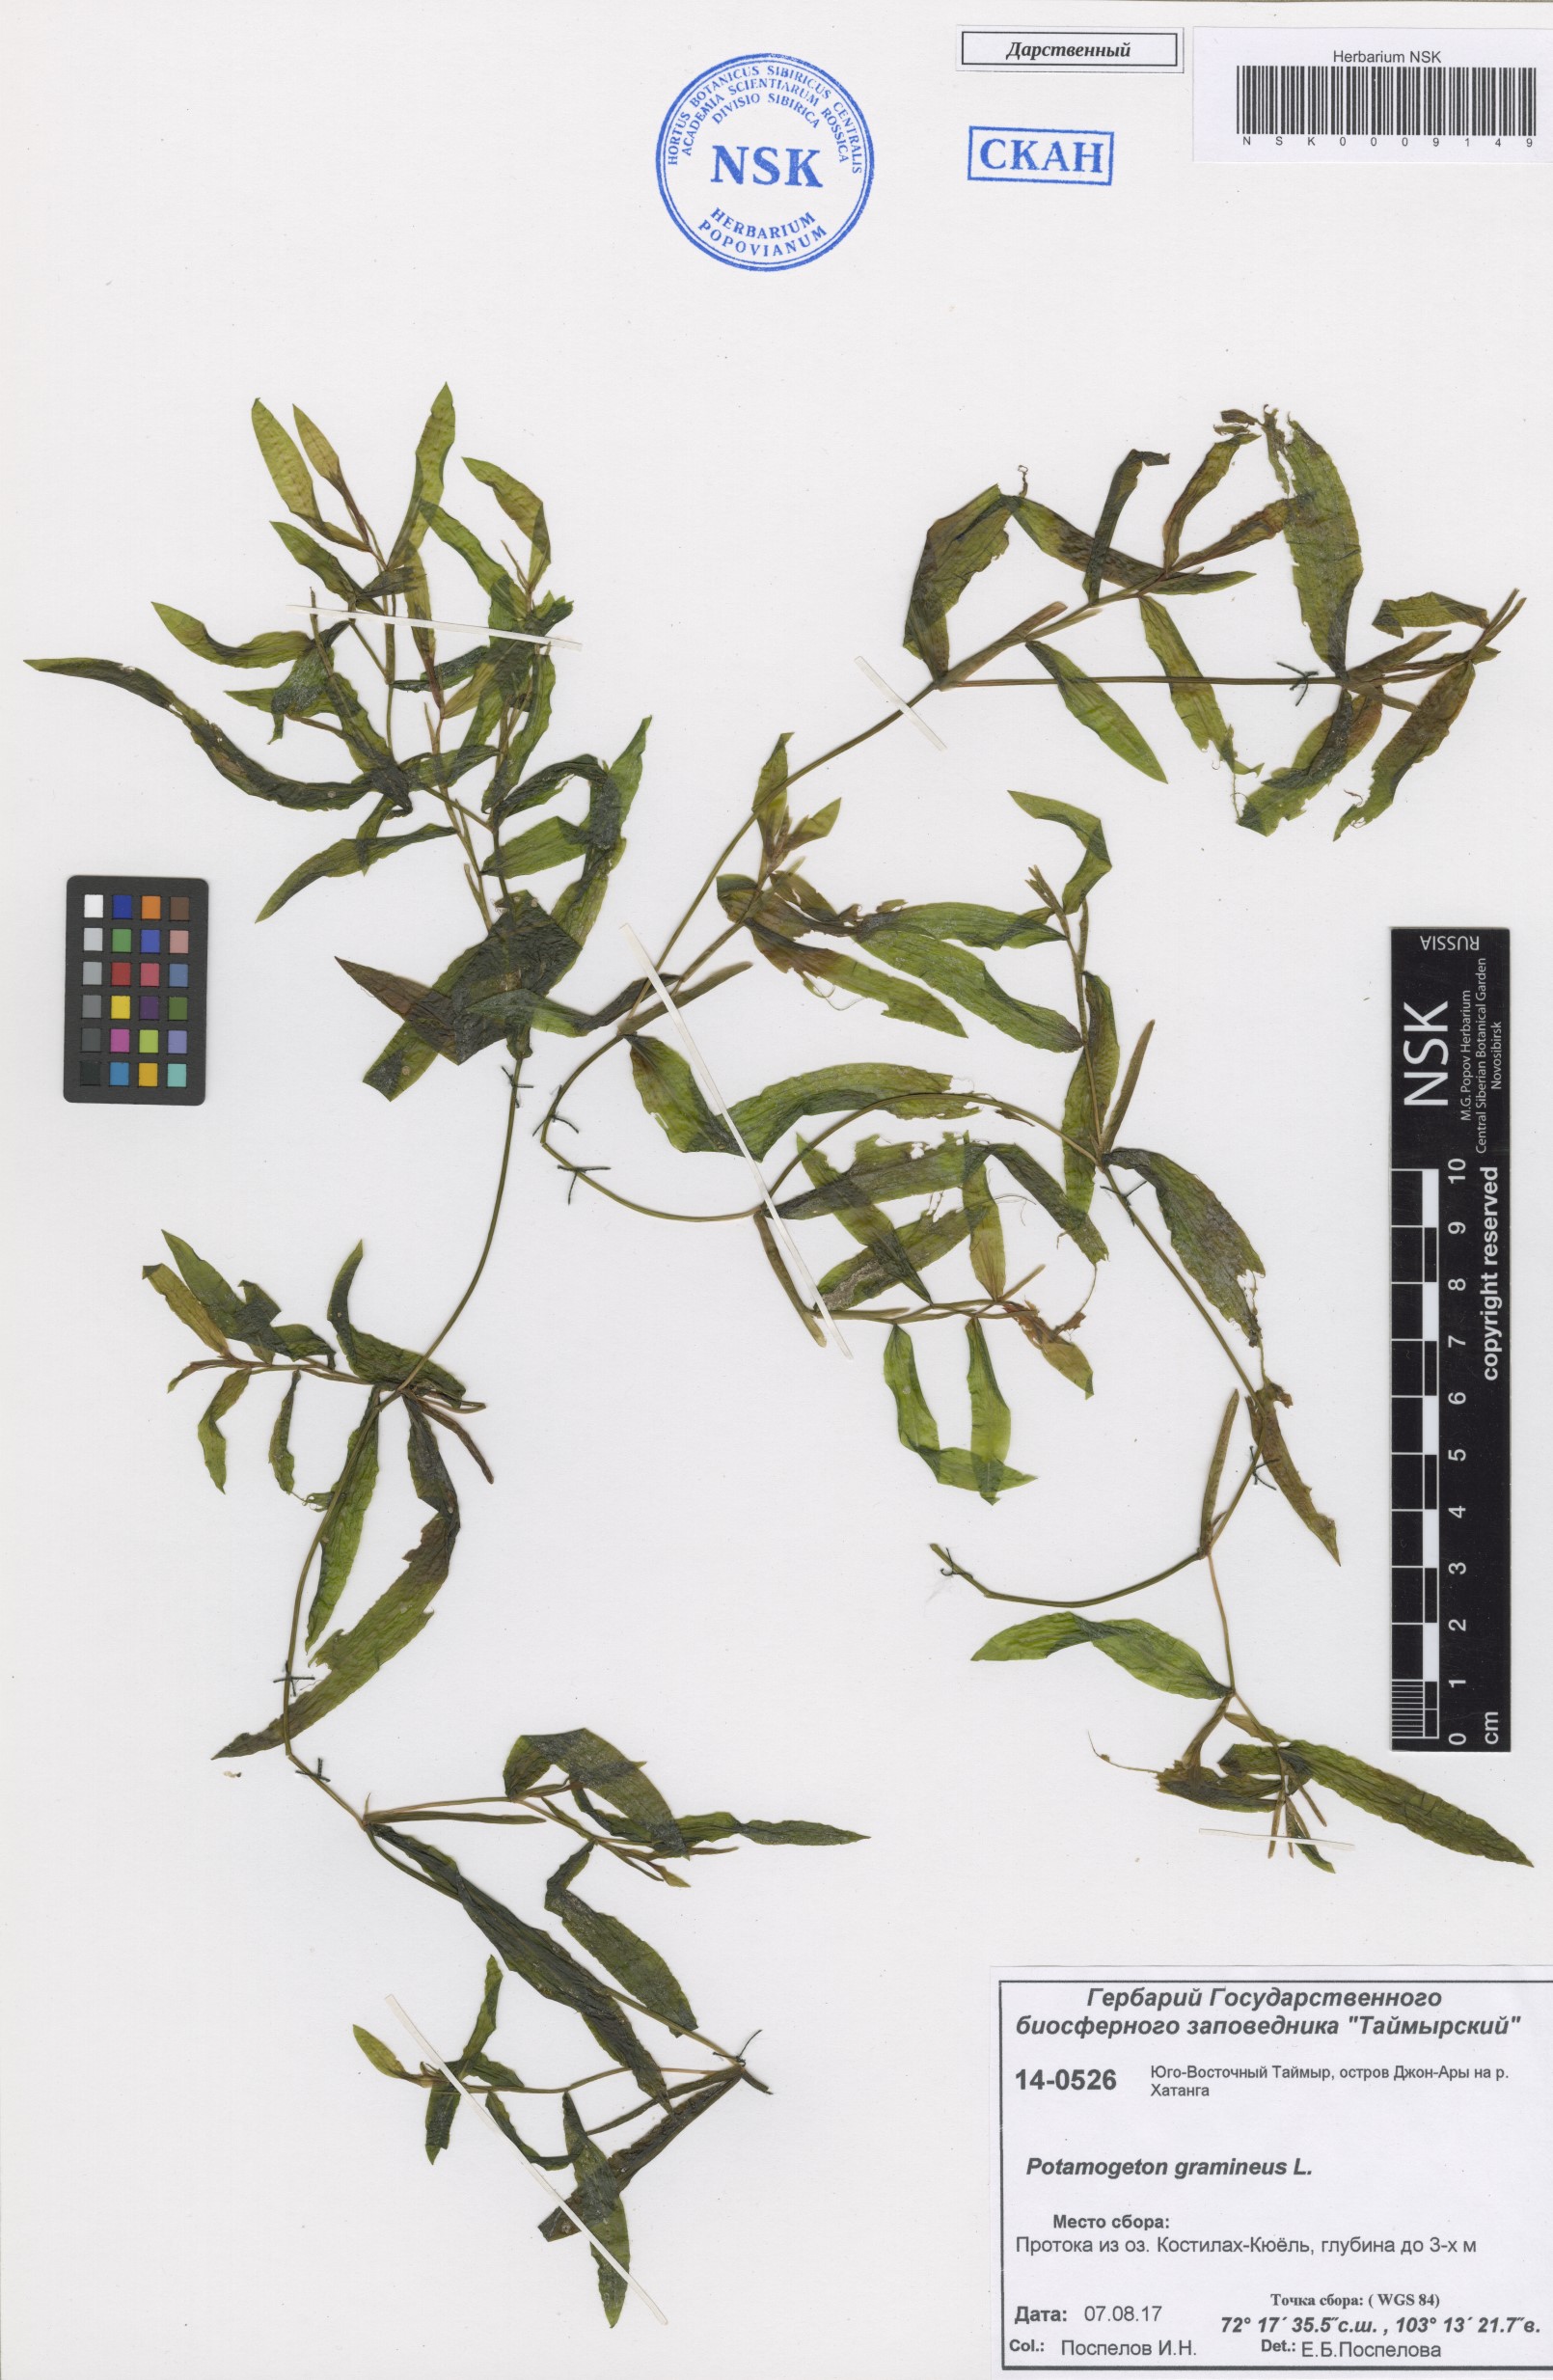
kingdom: Plantae
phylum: Tracheophyta
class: Liliopsida
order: Alismatales
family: Potamogetonaceae
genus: Potamogeton
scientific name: Potamogeton gramineus
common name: Various-leaved pondweed
